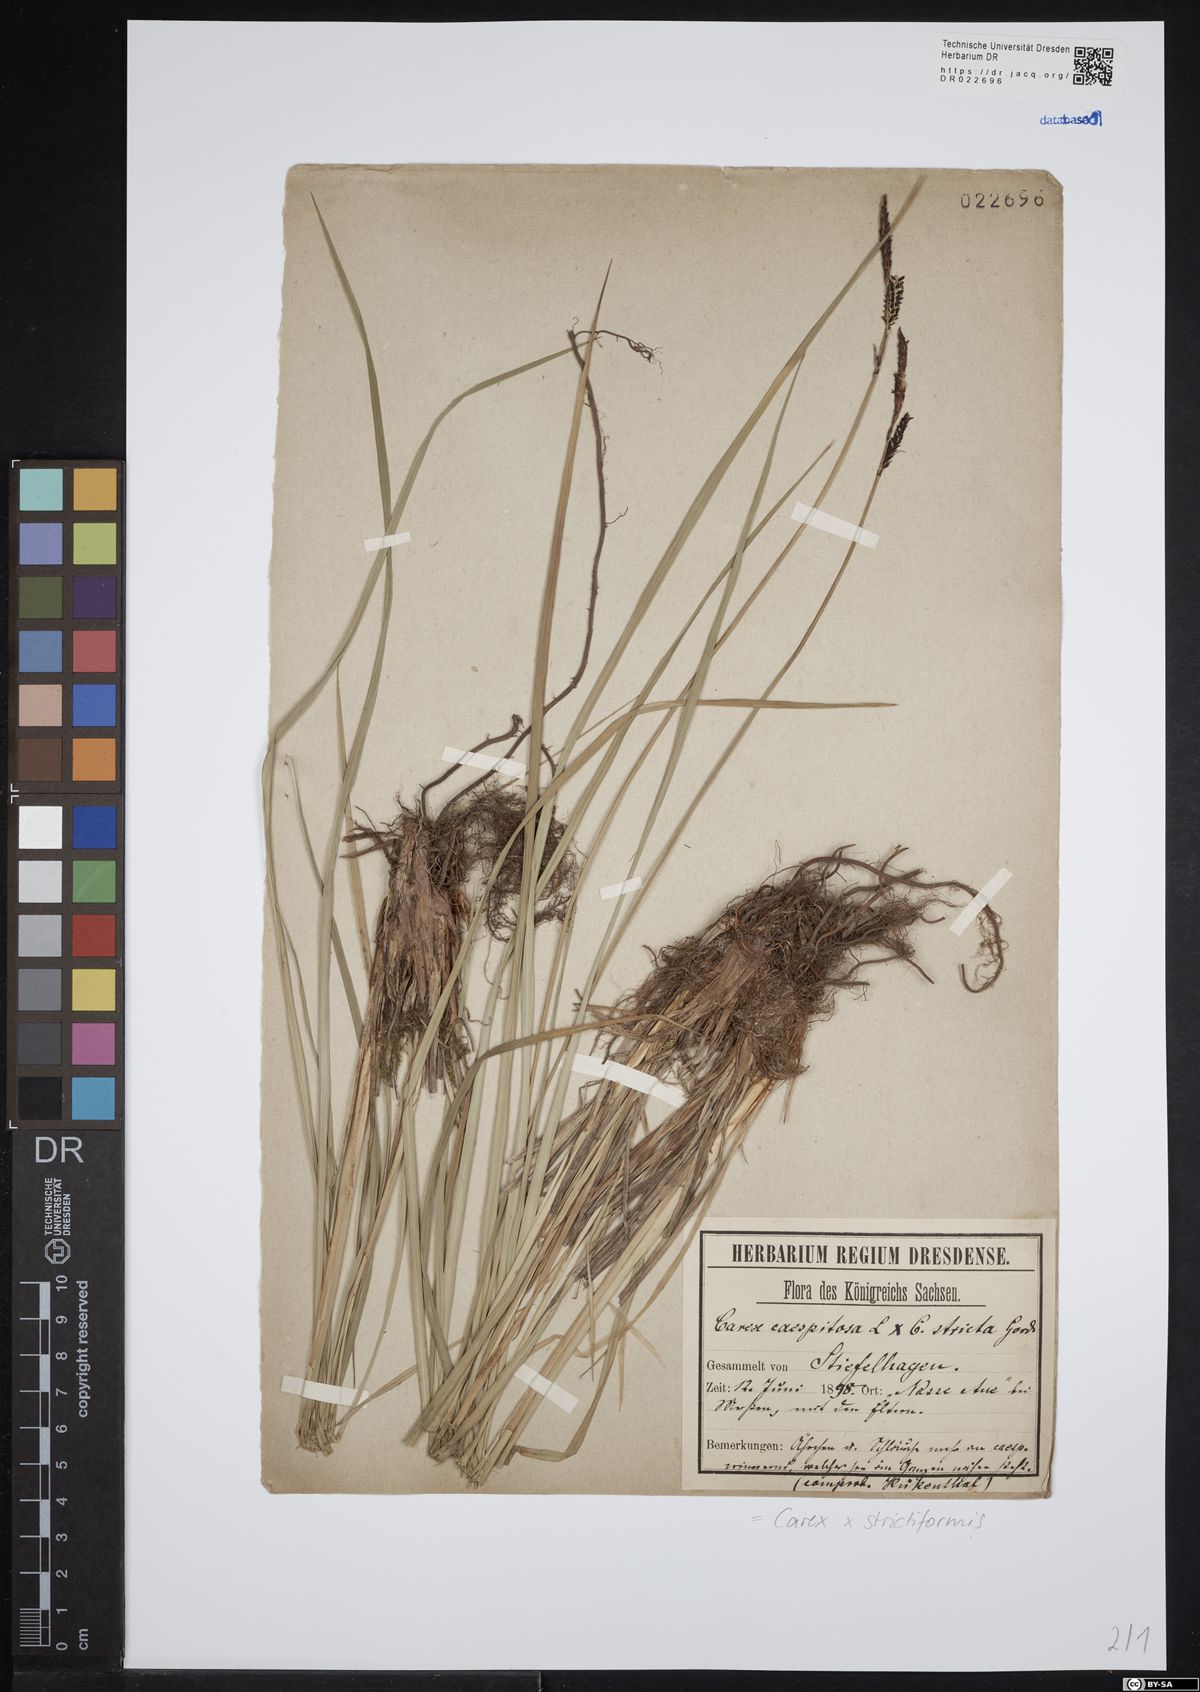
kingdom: Plantae
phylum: Tracheophyta
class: Liliopsida
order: Poales
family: Cyperaceae
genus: Carex
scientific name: Carex strictiformis
